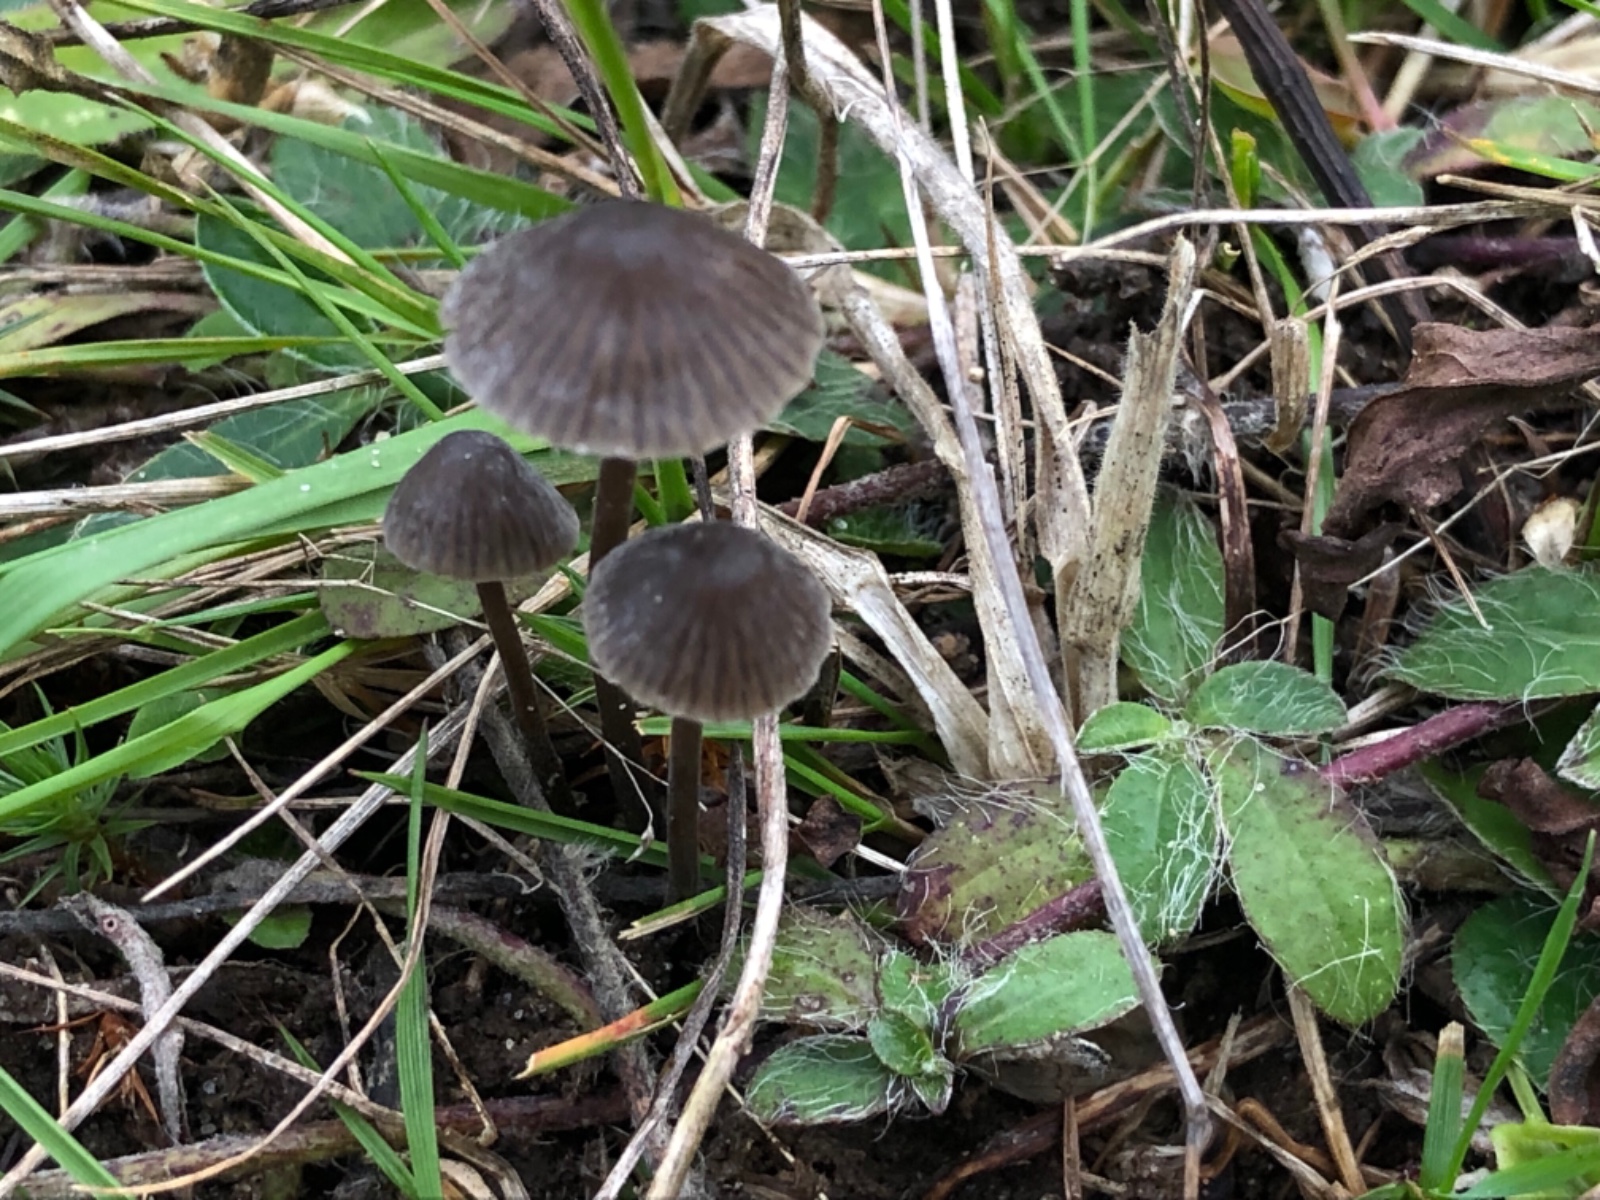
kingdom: Fungi
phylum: Basidiomycota
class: Agaricomycetes
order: Agaricales
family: Mycenaceae
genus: Mycena
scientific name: Mycena leptocephala
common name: klor-huesvamp
